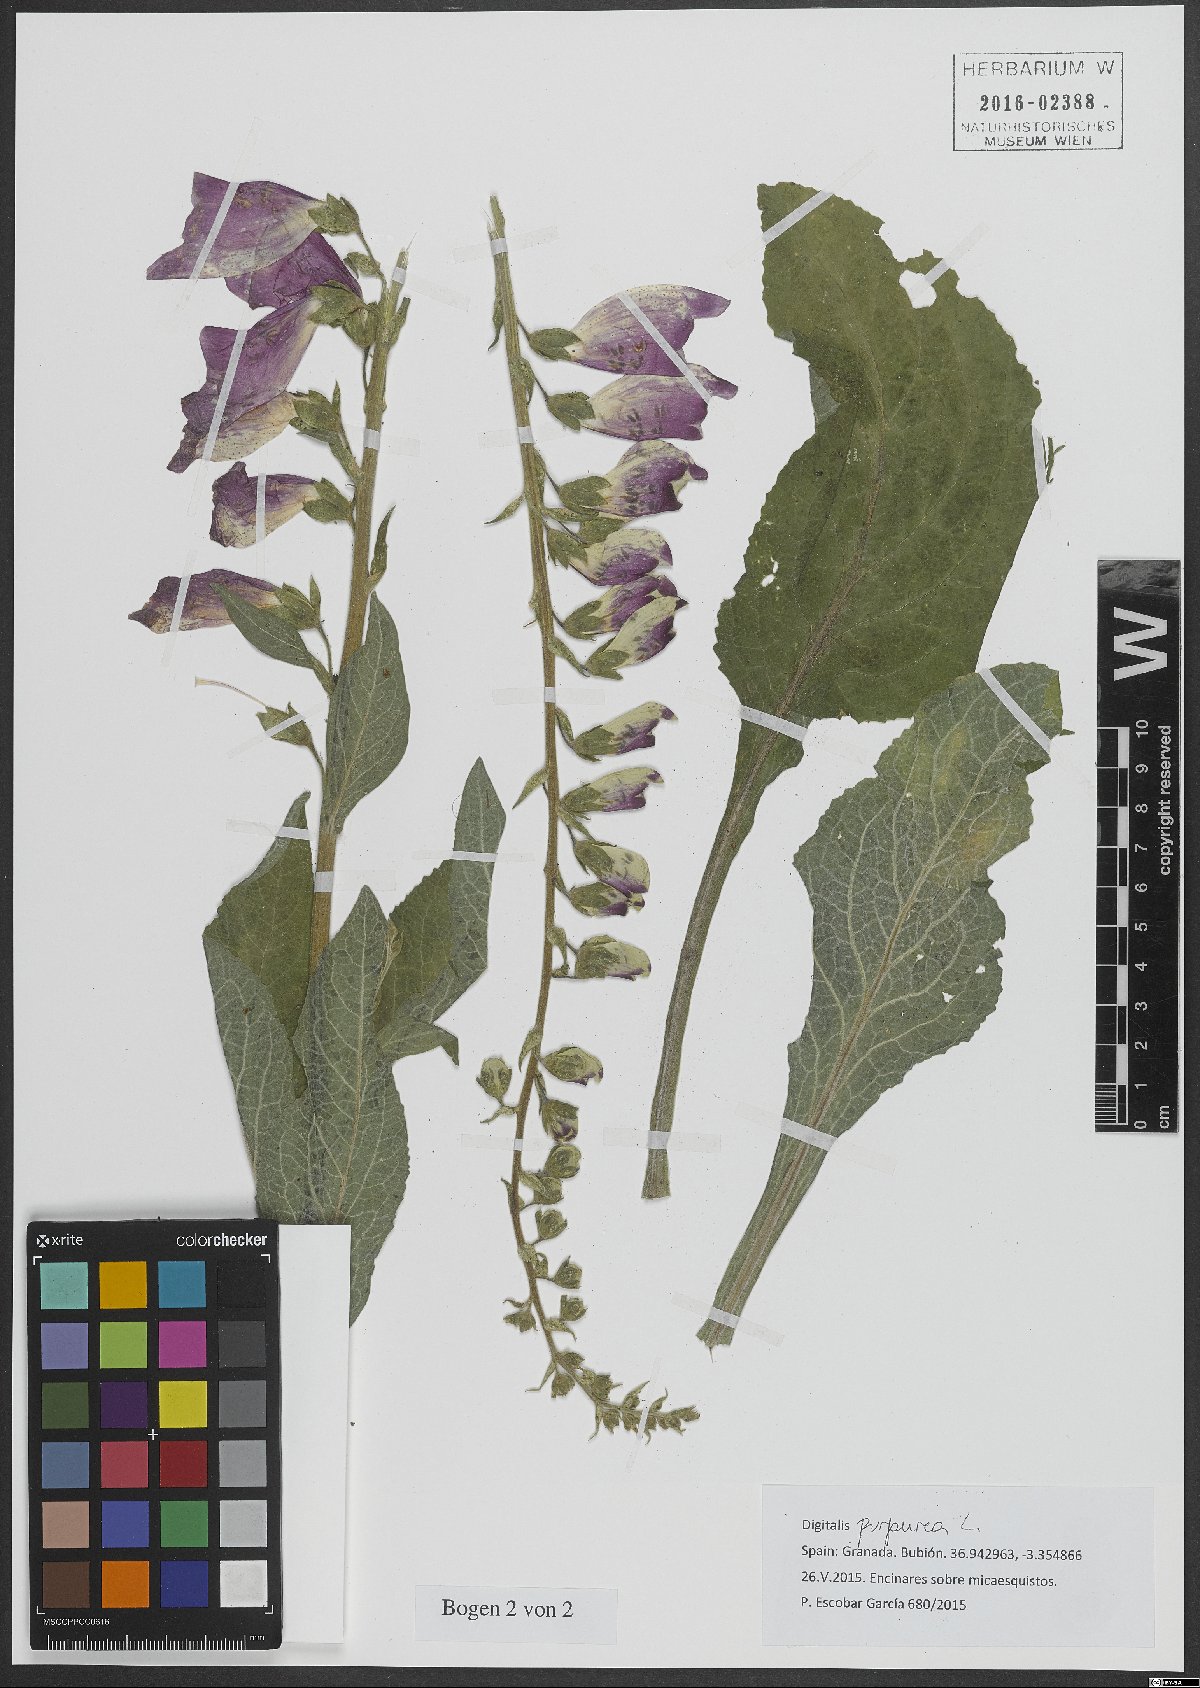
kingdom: Plantae
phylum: Tracheophyta
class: Magnoliopsida
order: Lamiales
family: Plantaginaceae
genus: Digitalis
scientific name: Digitalis purpurea
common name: Foxglove
